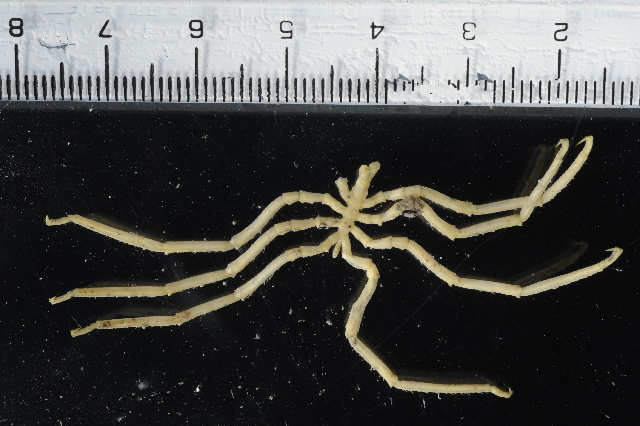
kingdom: Animalia
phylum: Arthropoda
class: Pycnogonida
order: Pantopoda
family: Pallenopsidae
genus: Pallenopsis
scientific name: Pallenopsis latefrontalis
